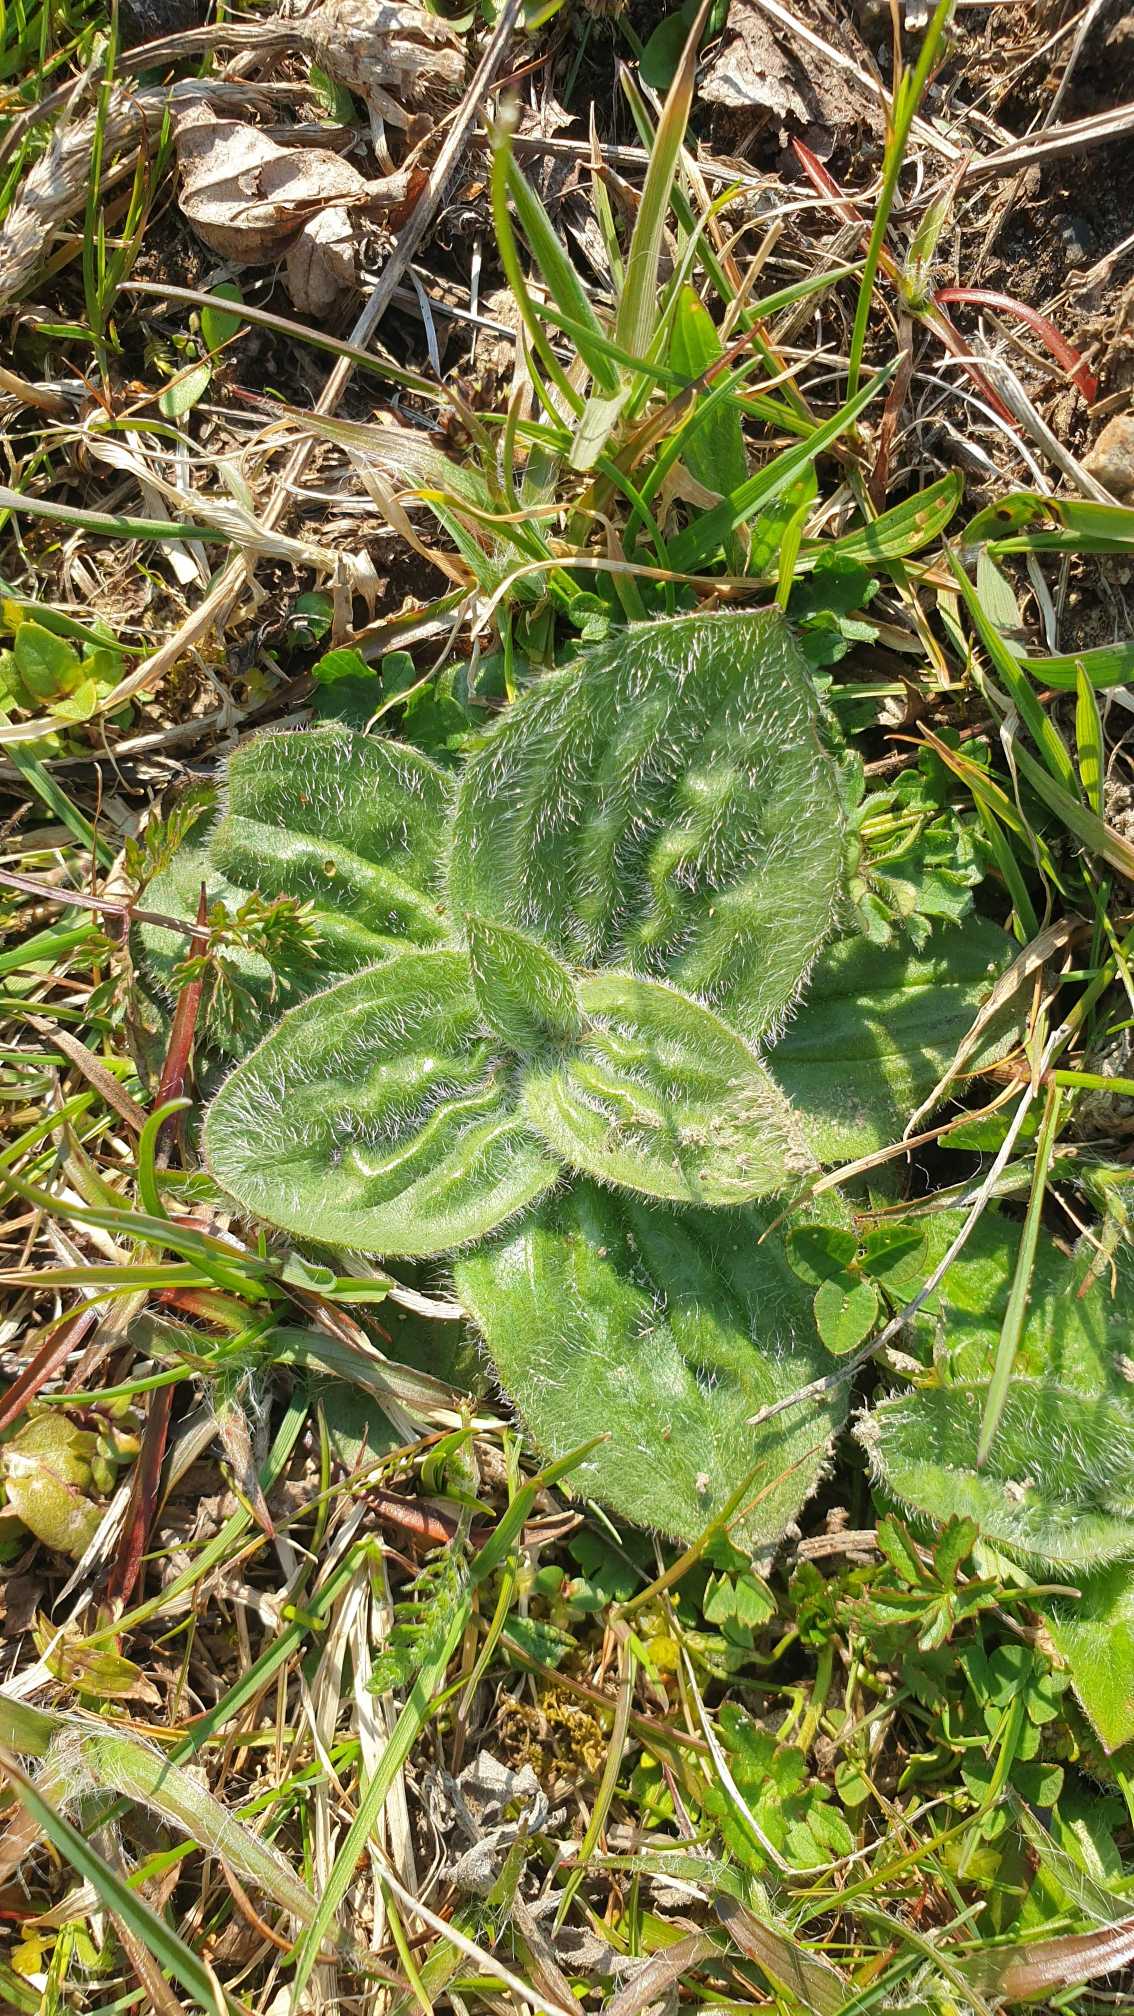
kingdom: Plantae
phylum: Tracheophyta
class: Magnoliopsida
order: Lamiales
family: Plantaginaceae
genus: Plantago
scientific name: Plantago media
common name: Dunet vejbred
